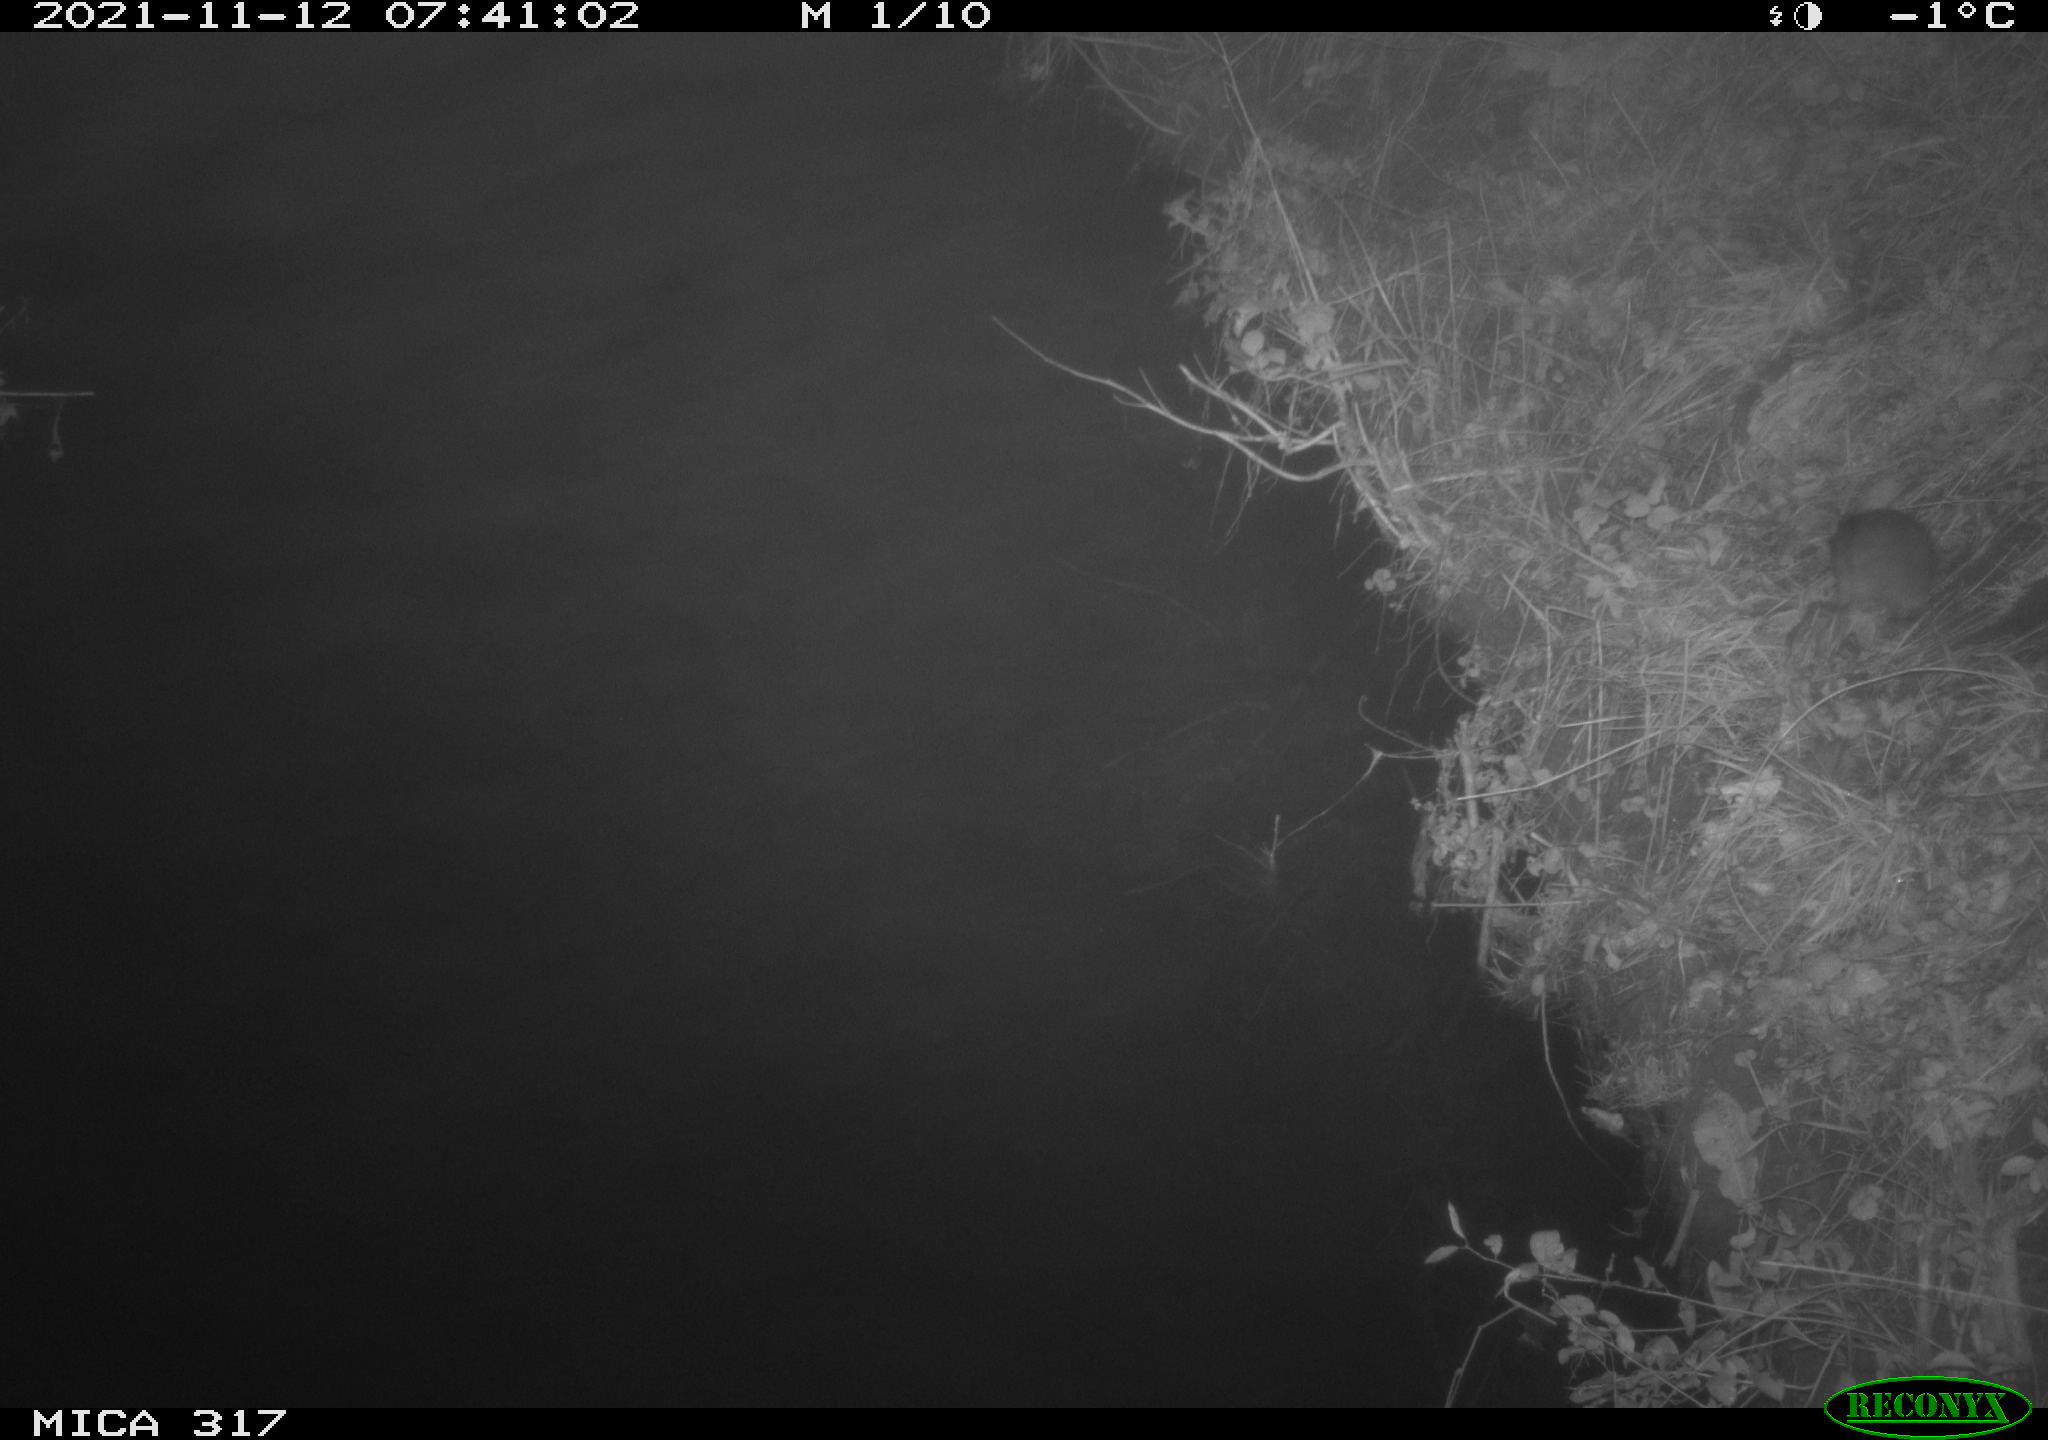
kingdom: Animalia
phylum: Chordata
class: Mammalia
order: Rodentia
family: Muridae
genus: Rattus
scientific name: Rattus norvegicus
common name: Brown rat
